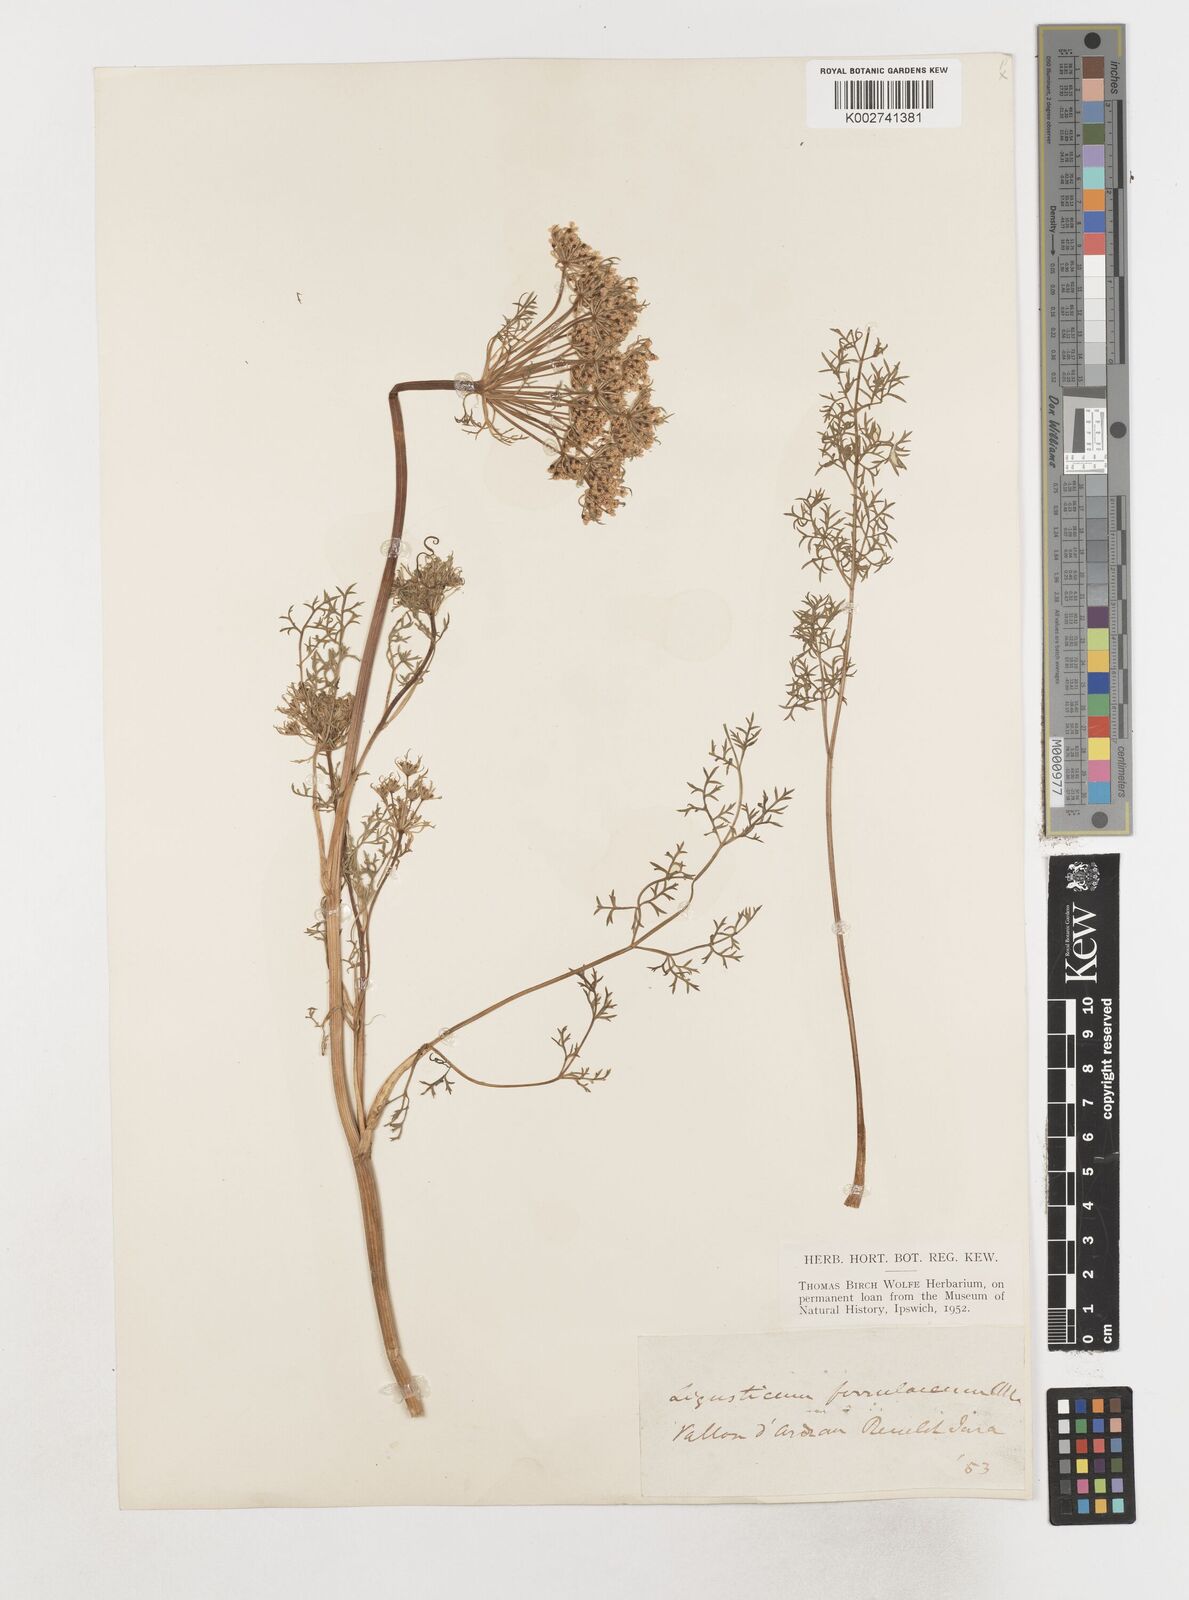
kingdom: Plantae
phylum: Tracheophyta
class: Magnoliopsida
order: Apiales
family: Apiaceae
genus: Coristospermum
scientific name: Coristospermum ferulaceum
